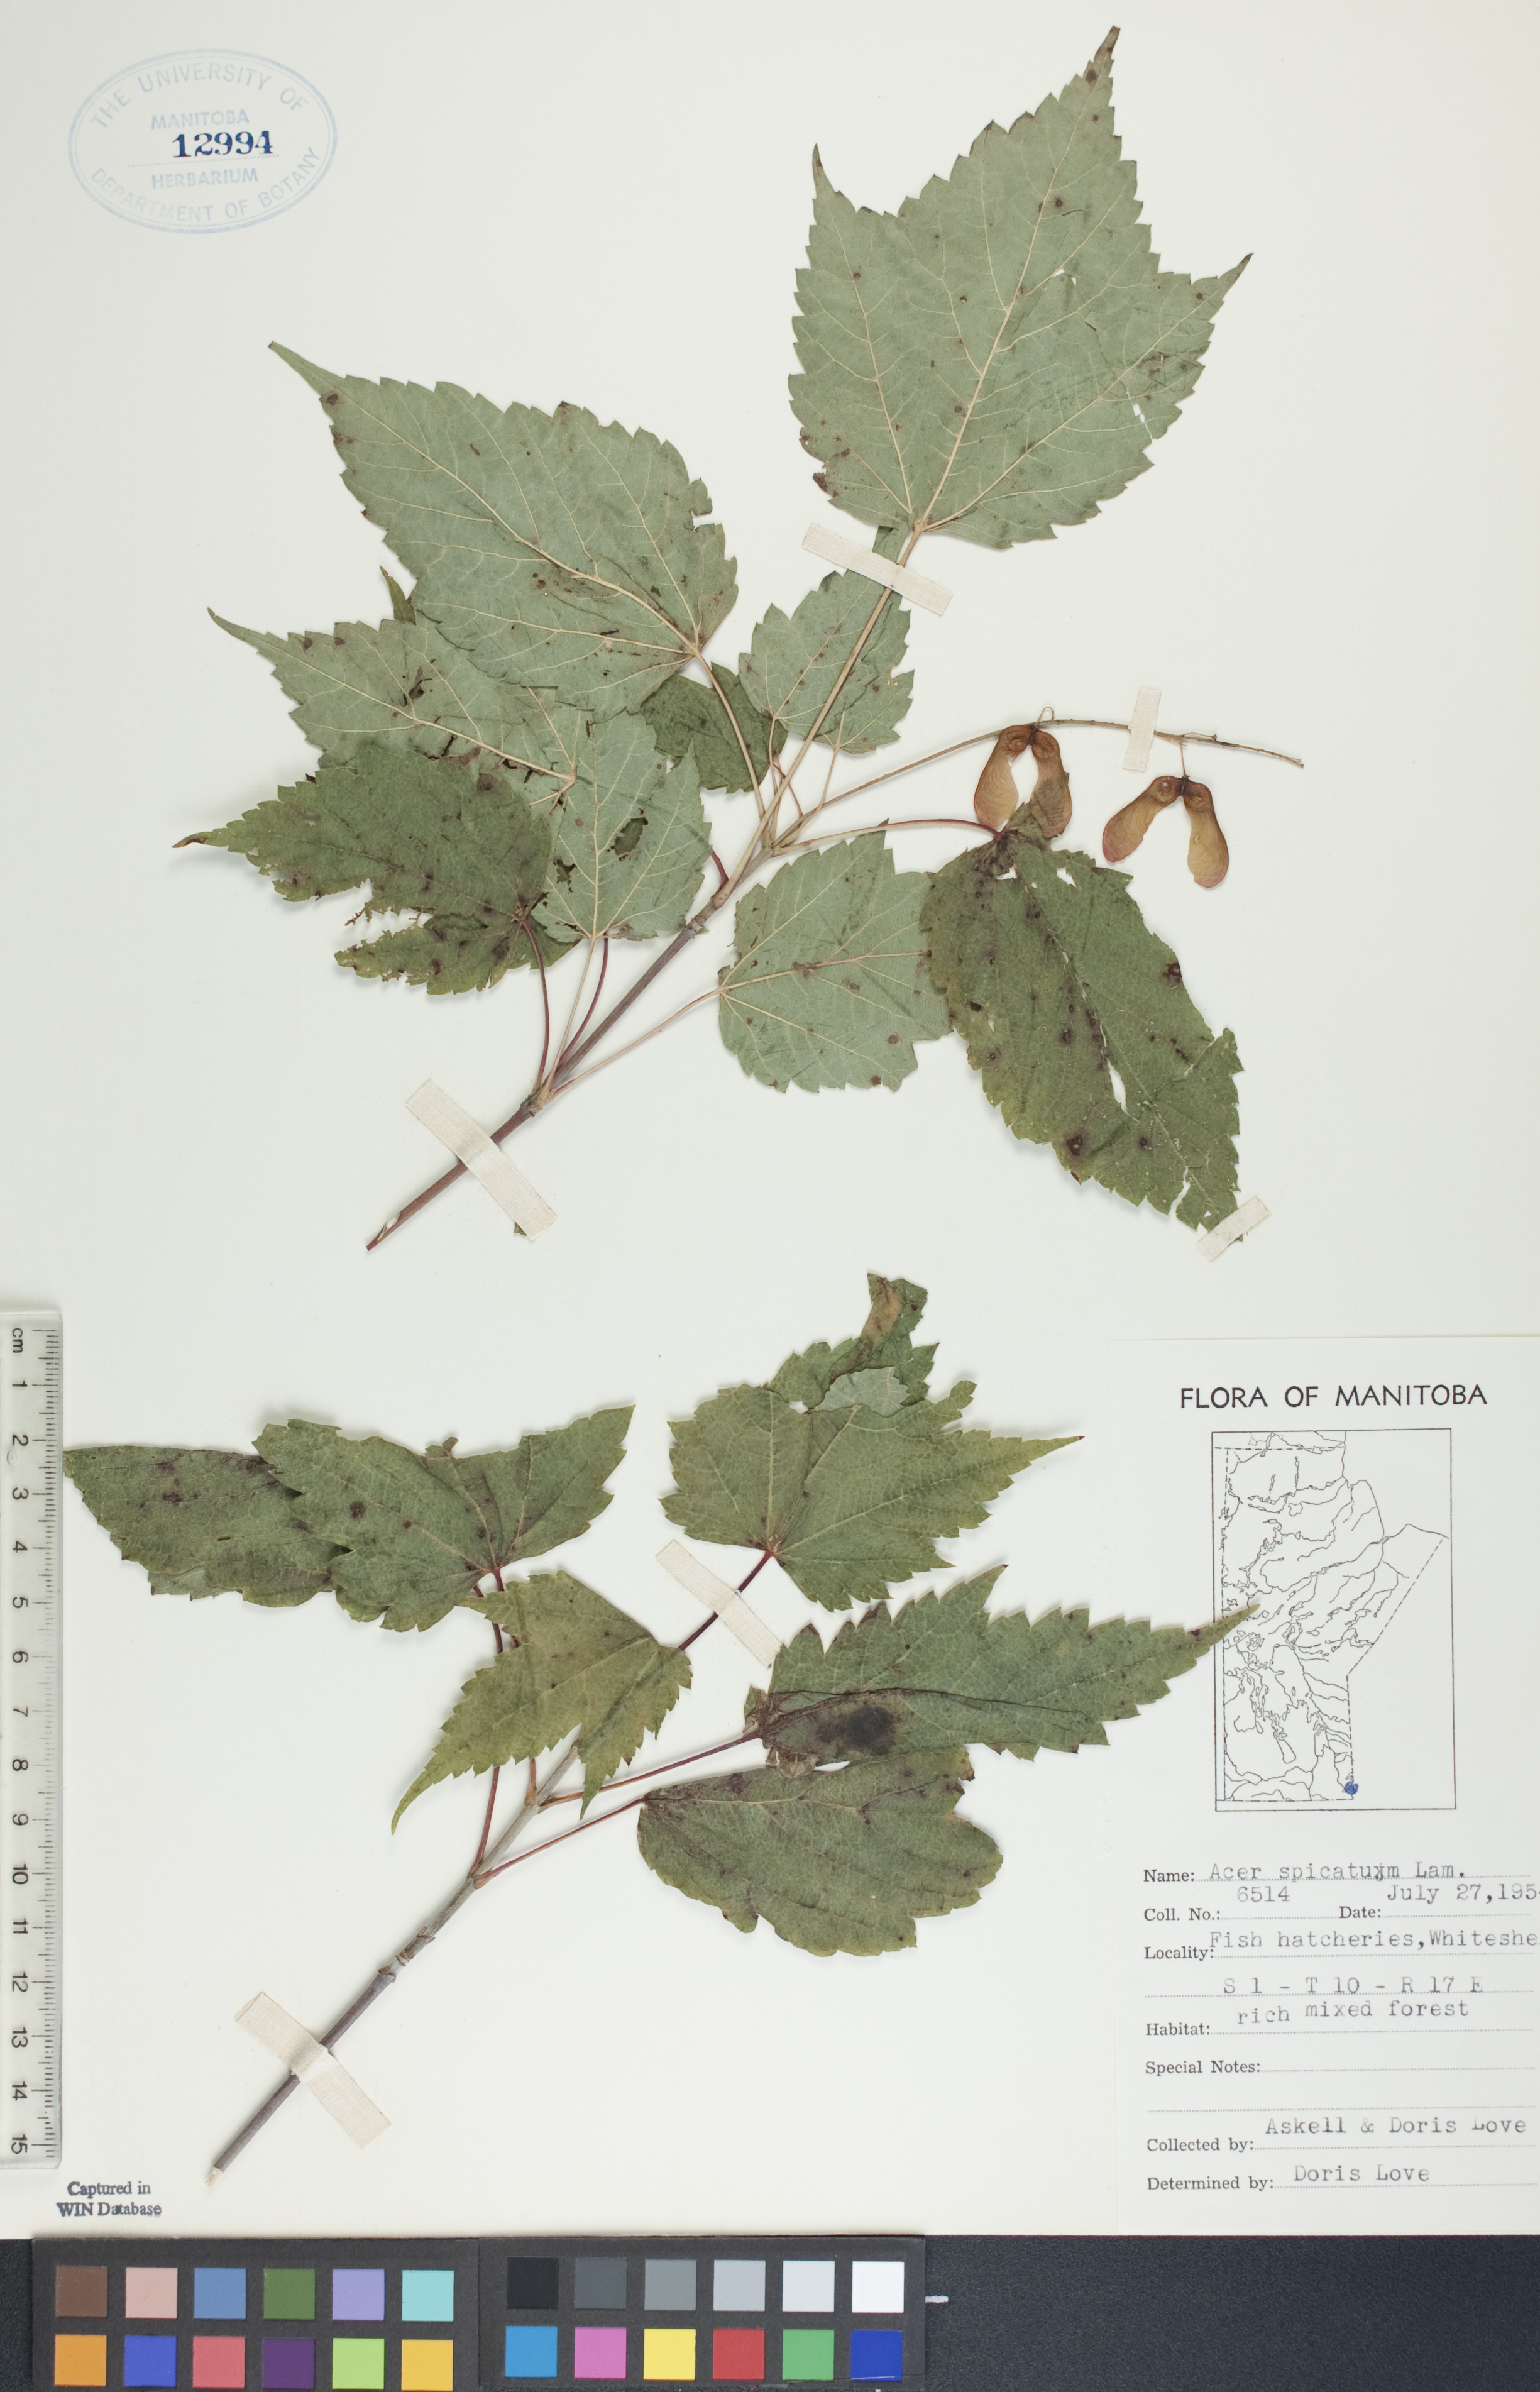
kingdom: Plantae
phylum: Tracheophyta
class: Magnoliopsida
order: Sapindales
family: Sapindaceae
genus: Acer
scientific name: Acer spicatum
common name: Mountain maple
